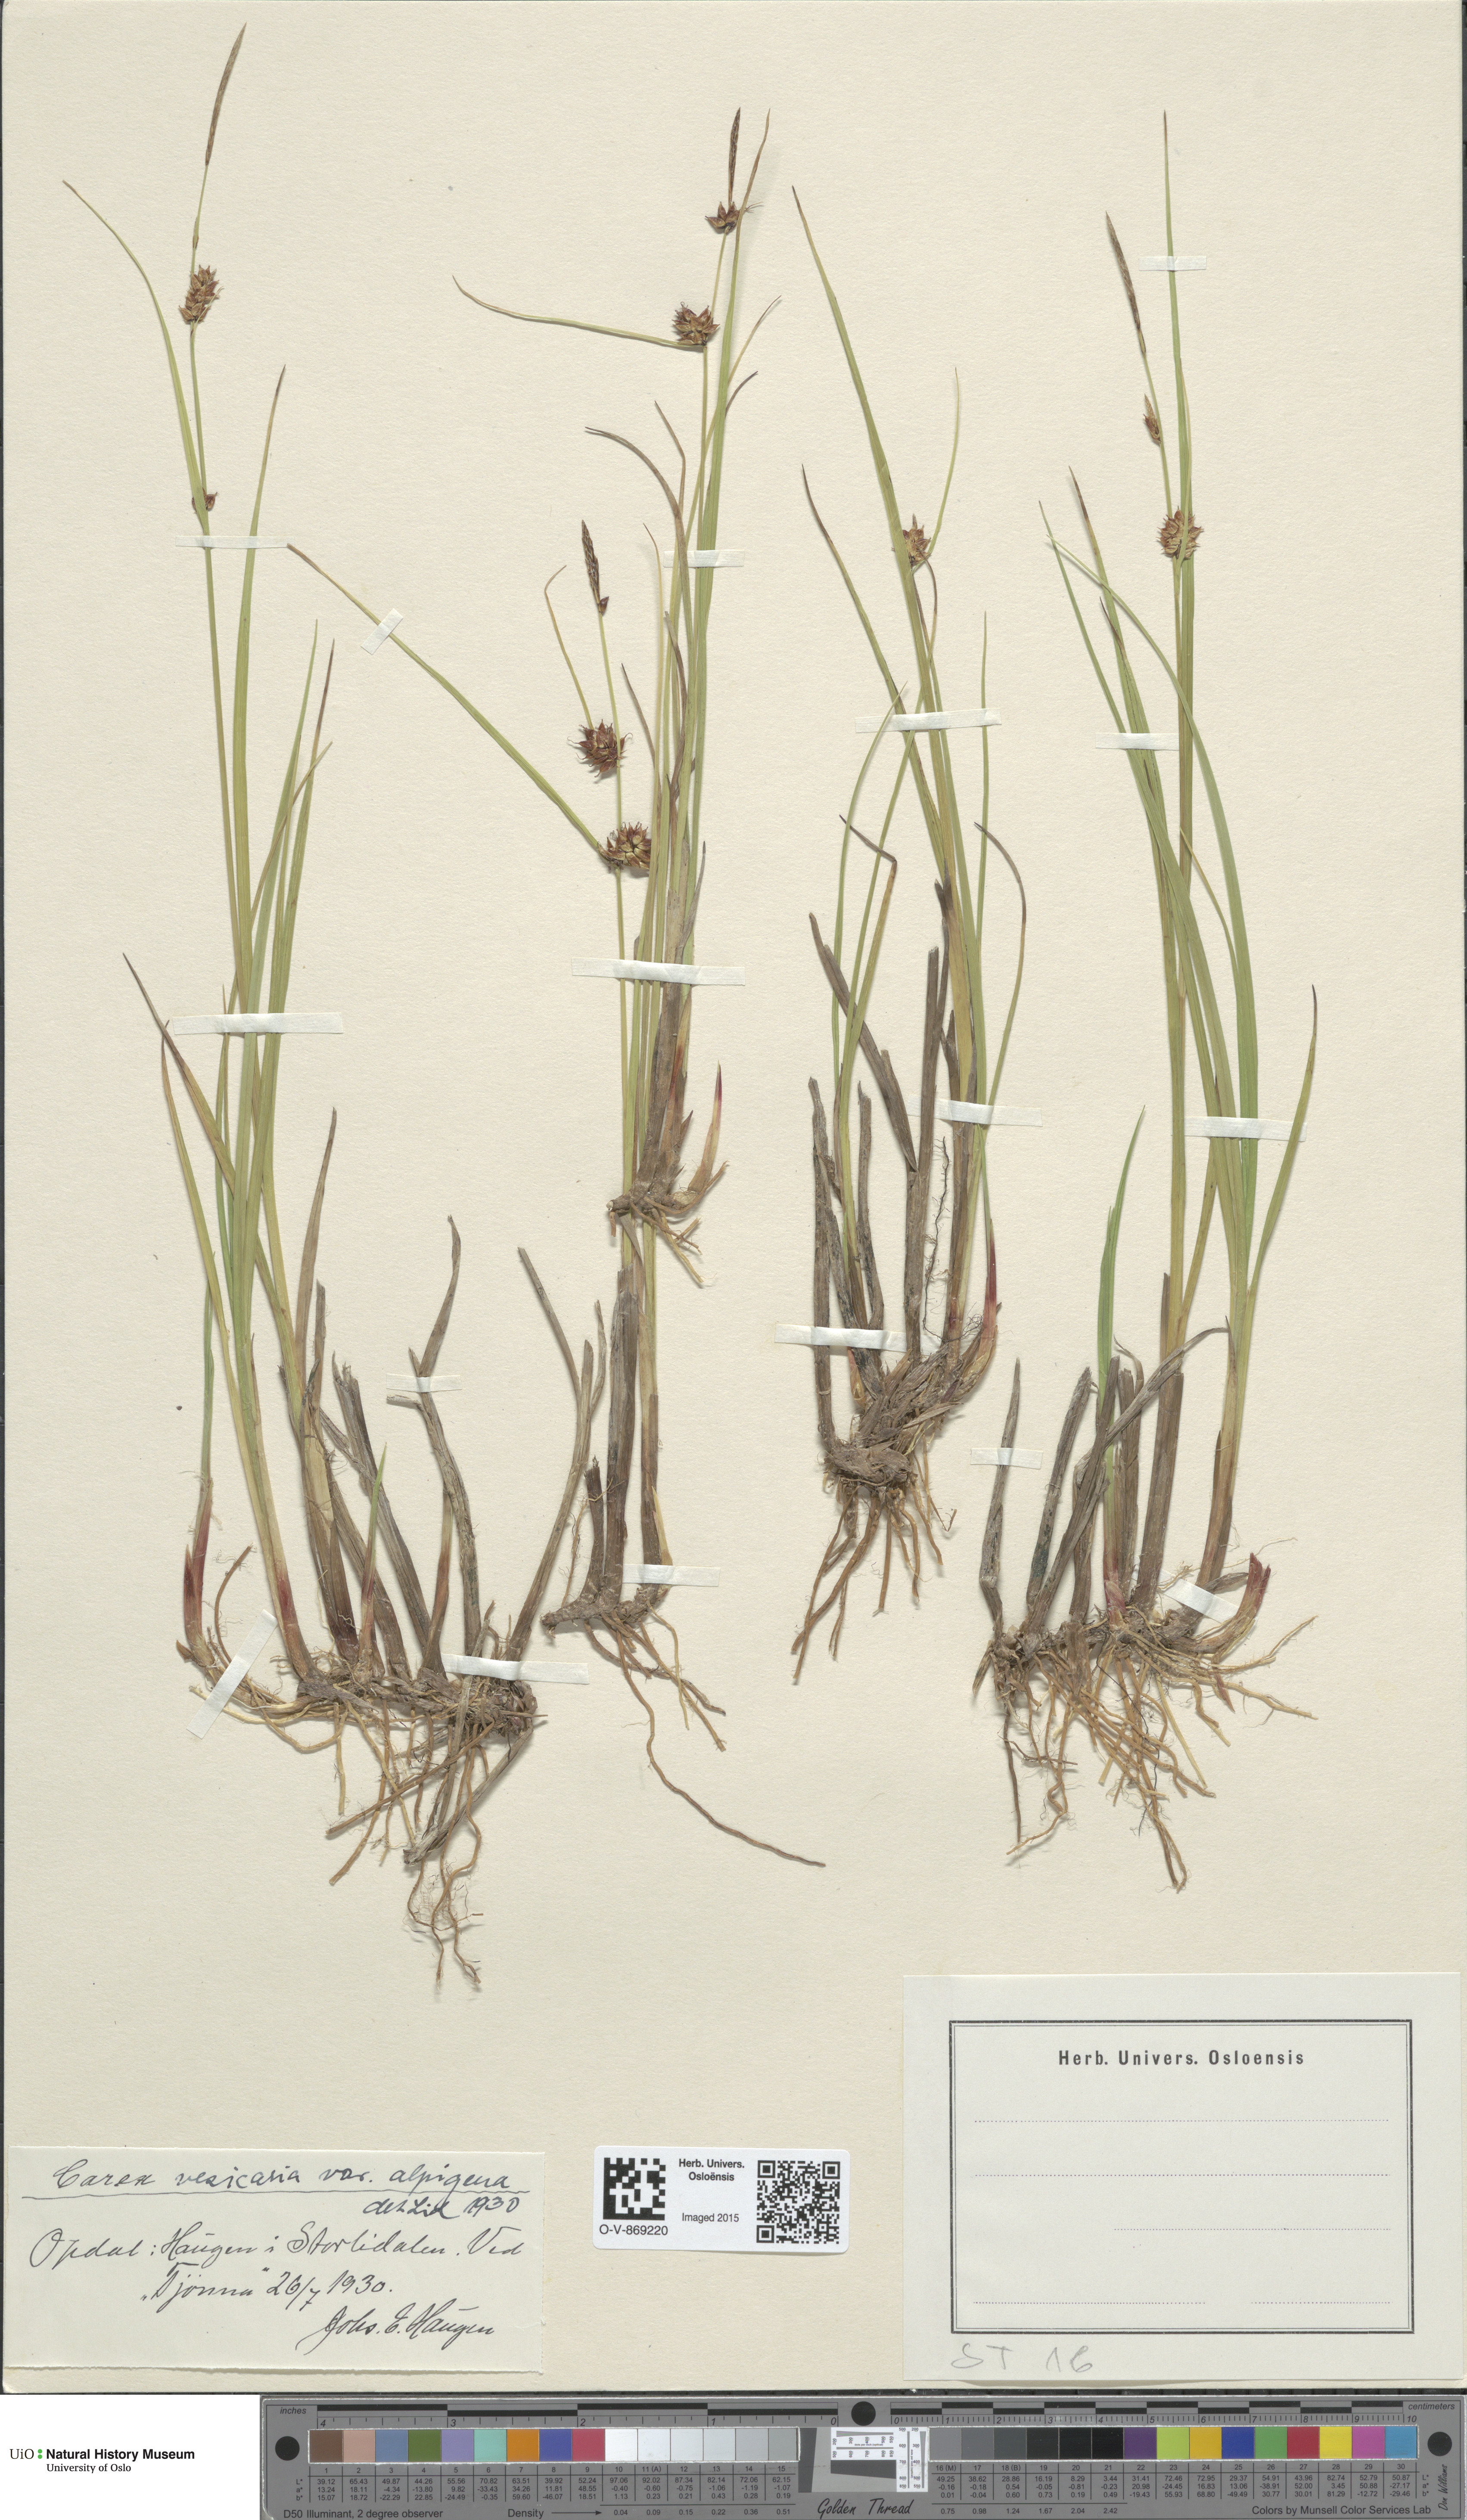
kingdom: Plantae
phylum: Tracheophyta
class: Liliopsida
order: Poales
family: Cyperaceae
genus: Carex
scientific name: Carex grahamii
